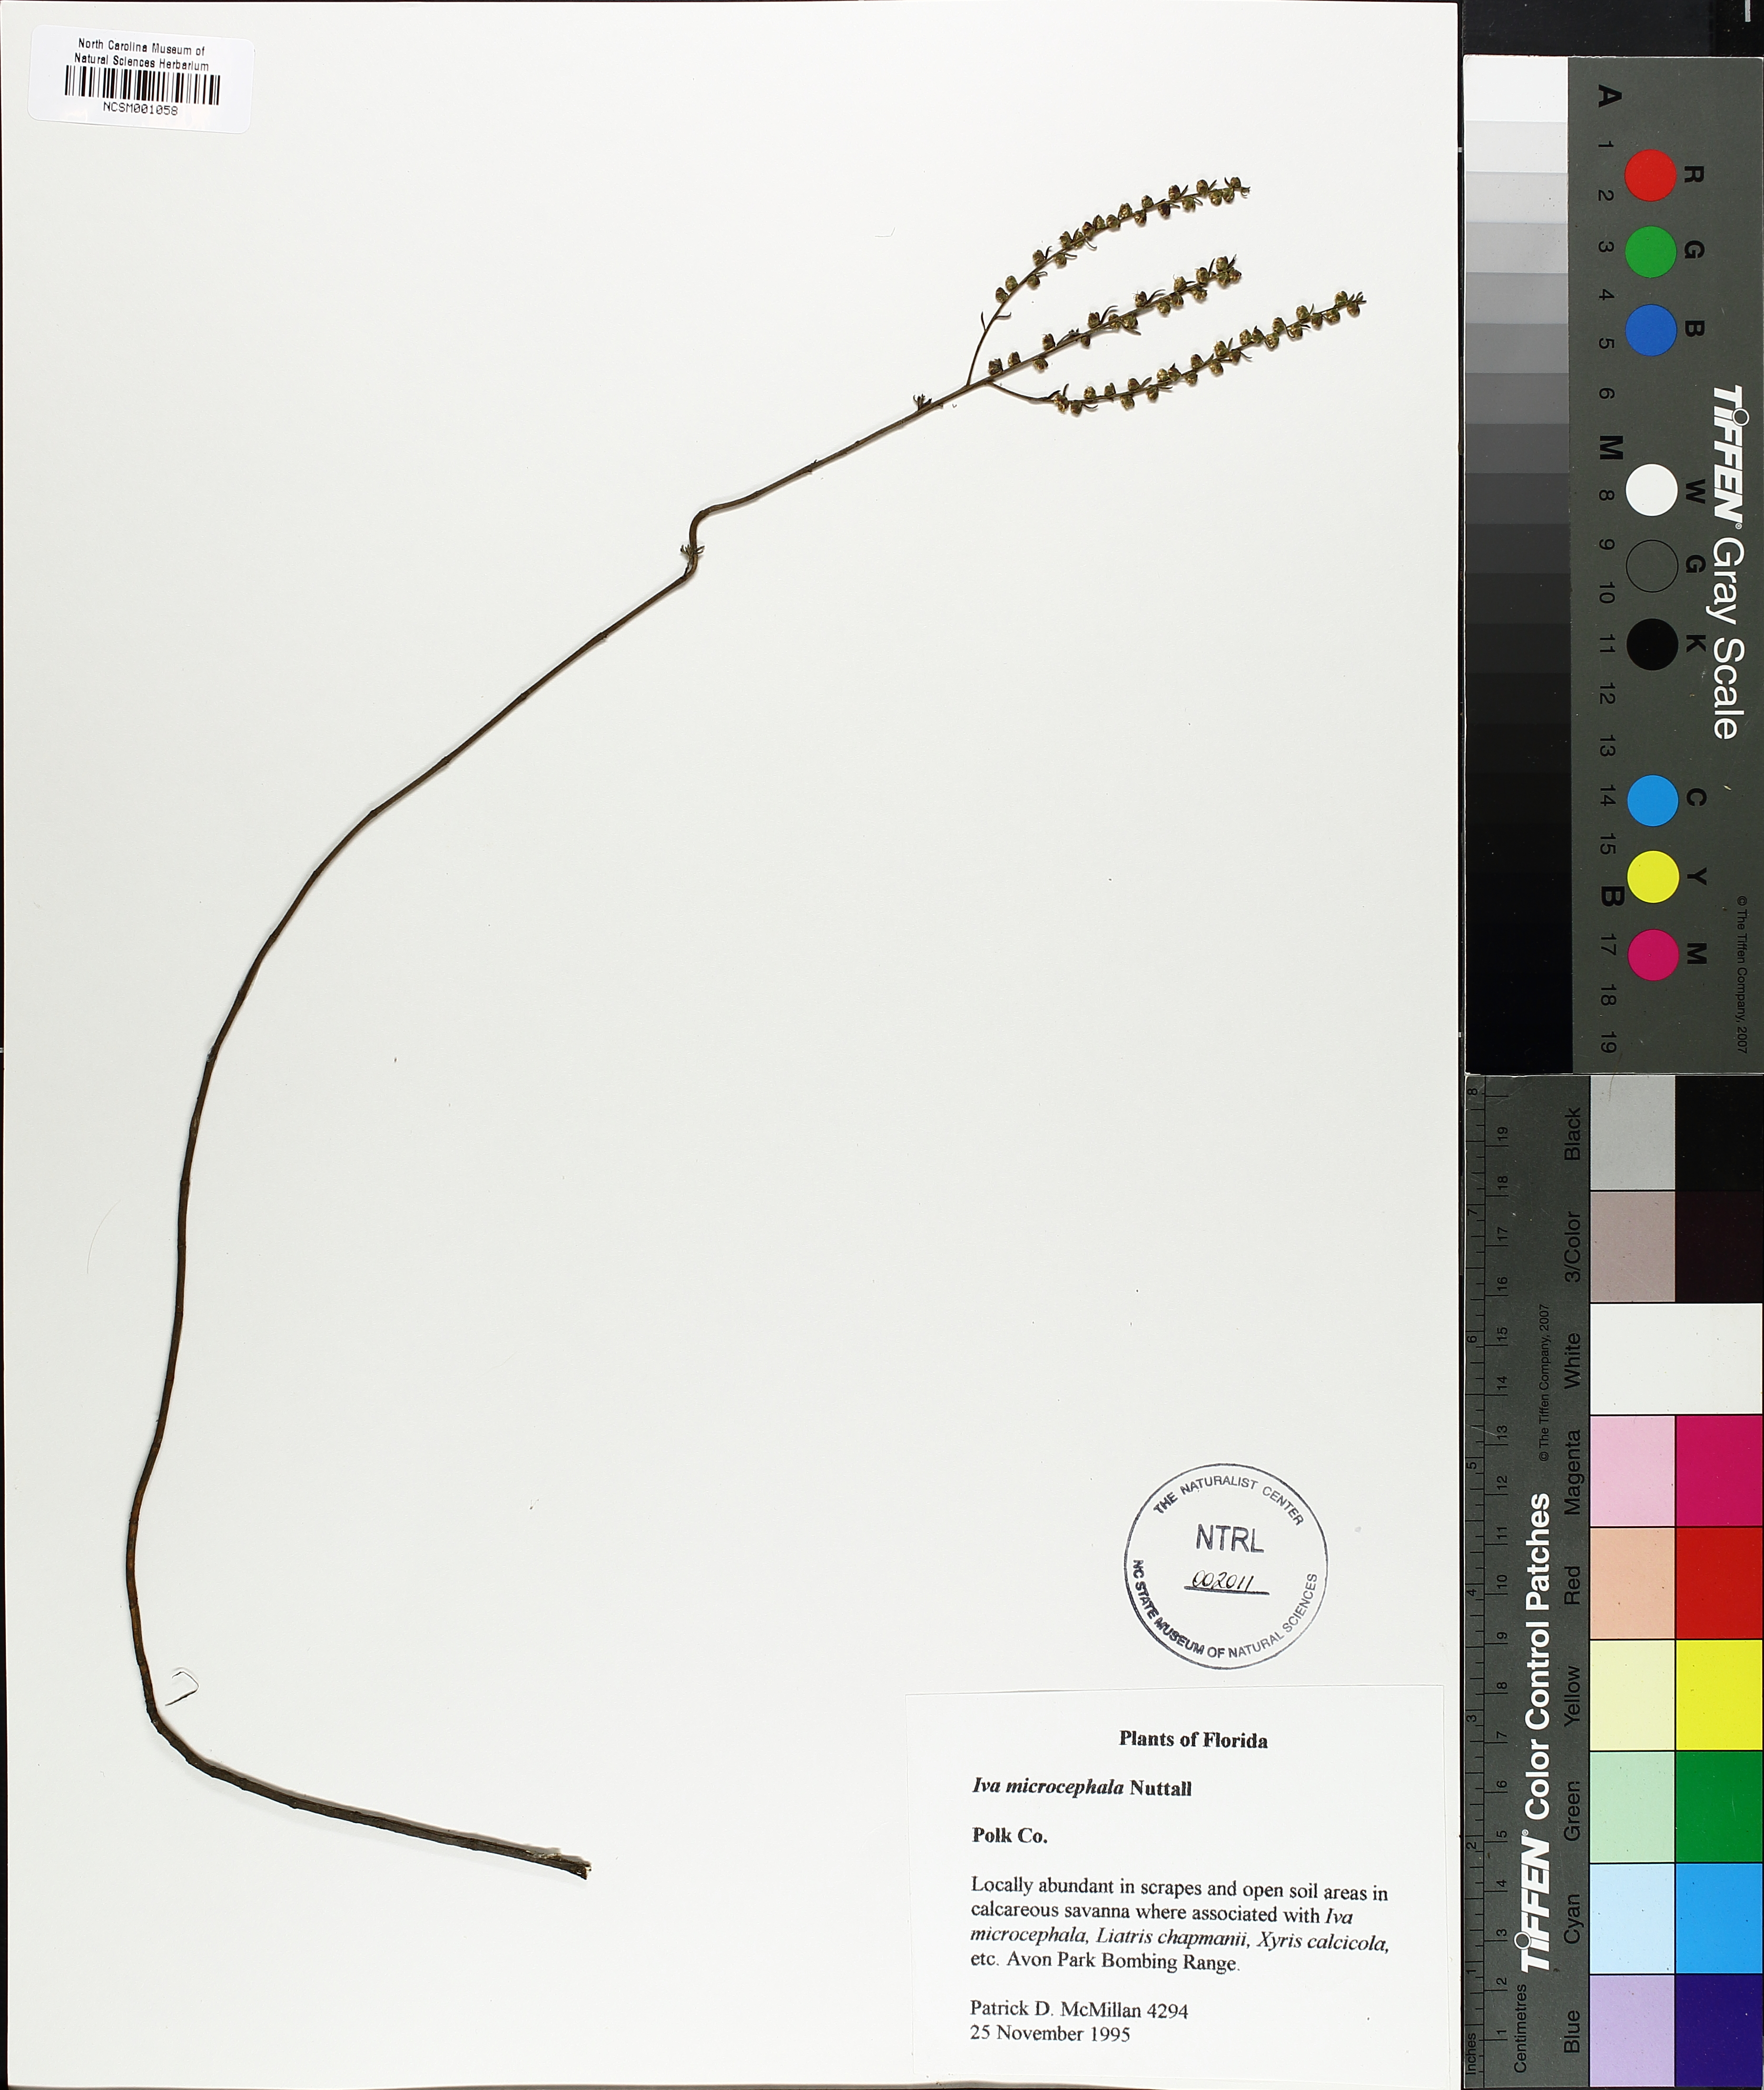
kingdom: Plantae
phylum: Tracheophyta
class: Magnoliopsida
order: Asterales
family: Asteraceae
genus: Iva
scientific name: Iva microcephala
